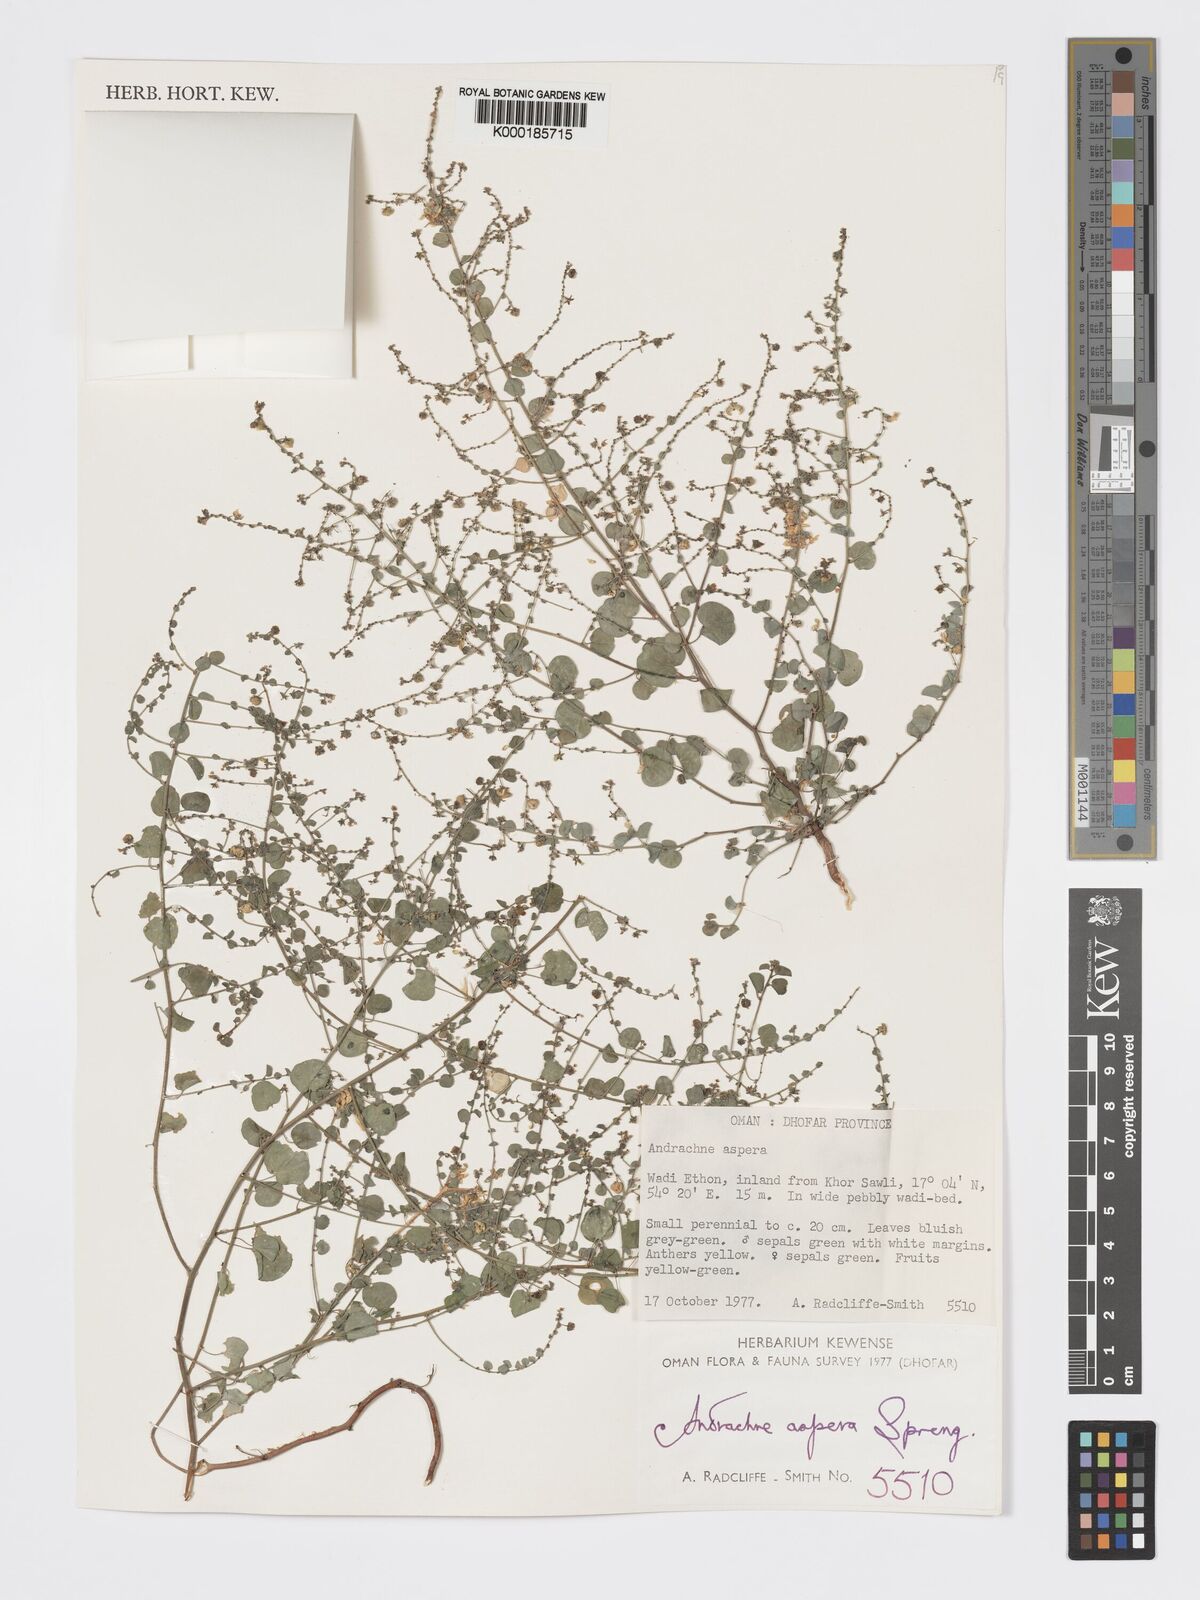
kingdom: Plantae
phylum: Tracheophyta
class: Magnoliopsida
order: Malpighiales
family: Phyllanthaceae
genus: Andrachne
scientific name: Andrachne aspera
